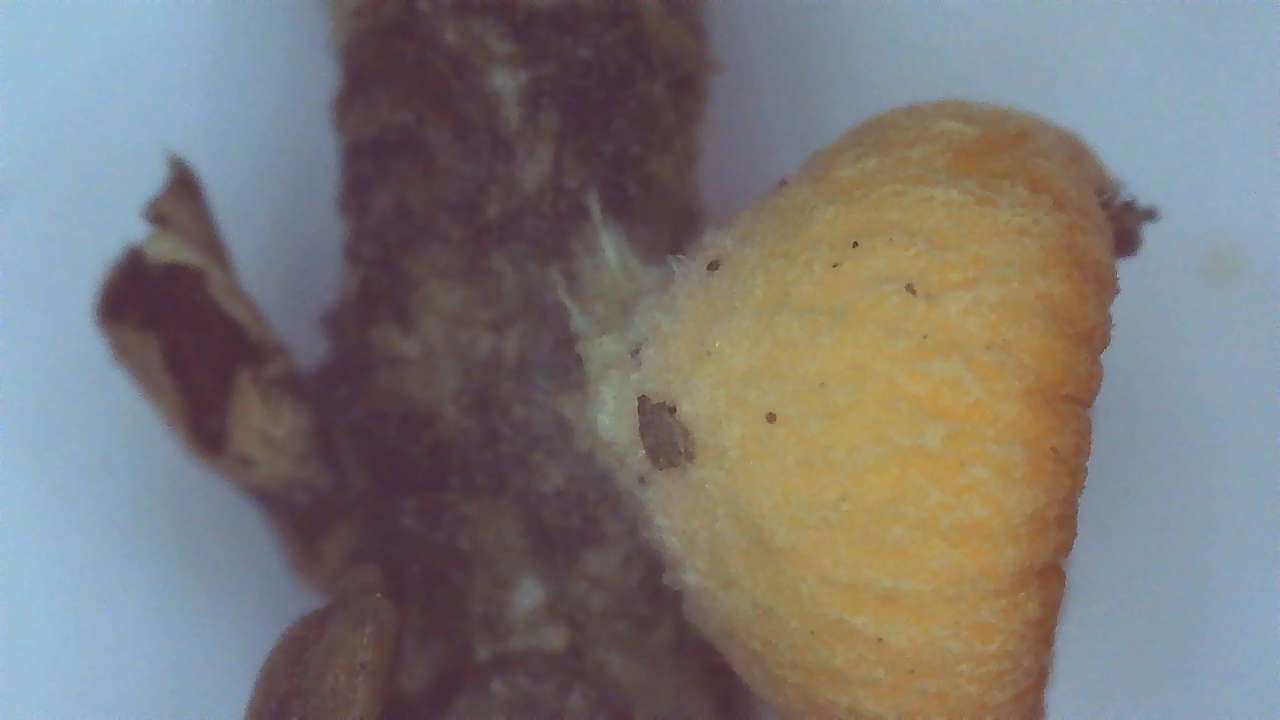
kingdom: Fungi
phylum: Ascomycota
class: Pezizomycetes
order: Pezizales
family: Sarcoscyphaceae
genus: Pithya
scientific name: Pithya vulgaris
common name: stor dukatbæger
